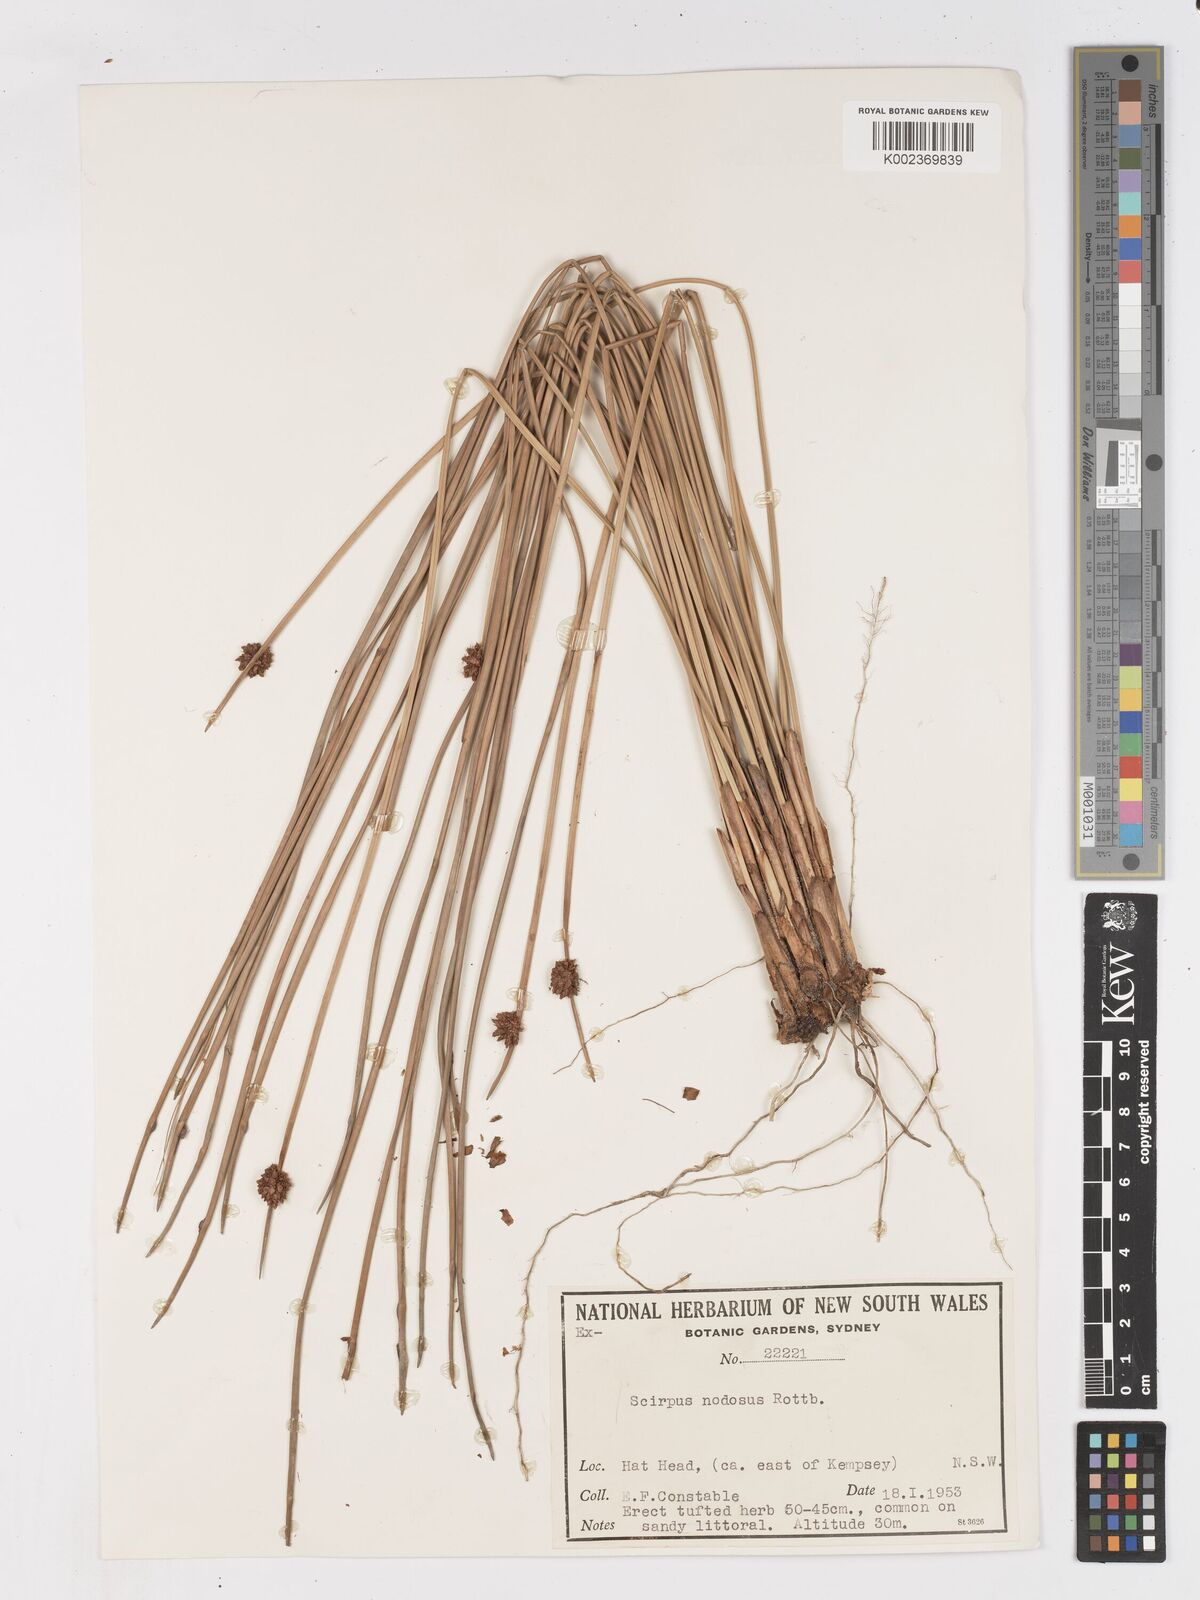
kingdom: Plantae
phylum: Tracheophyta
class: Liliopsida
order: Poales
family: Cyperaceae
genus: Ficinia
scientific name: Ficinia nodosa
